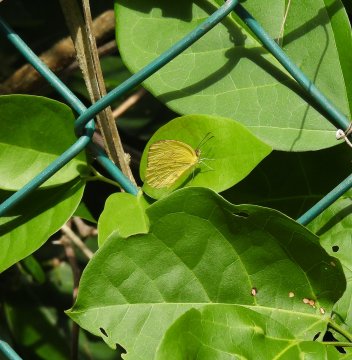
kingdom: Animalia
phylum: Arthropoda
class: Insecta
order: Lepidoptera
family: Pieridae
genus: Pyrisitia
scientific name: Pyrisitia dina
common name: Dina Yellow
